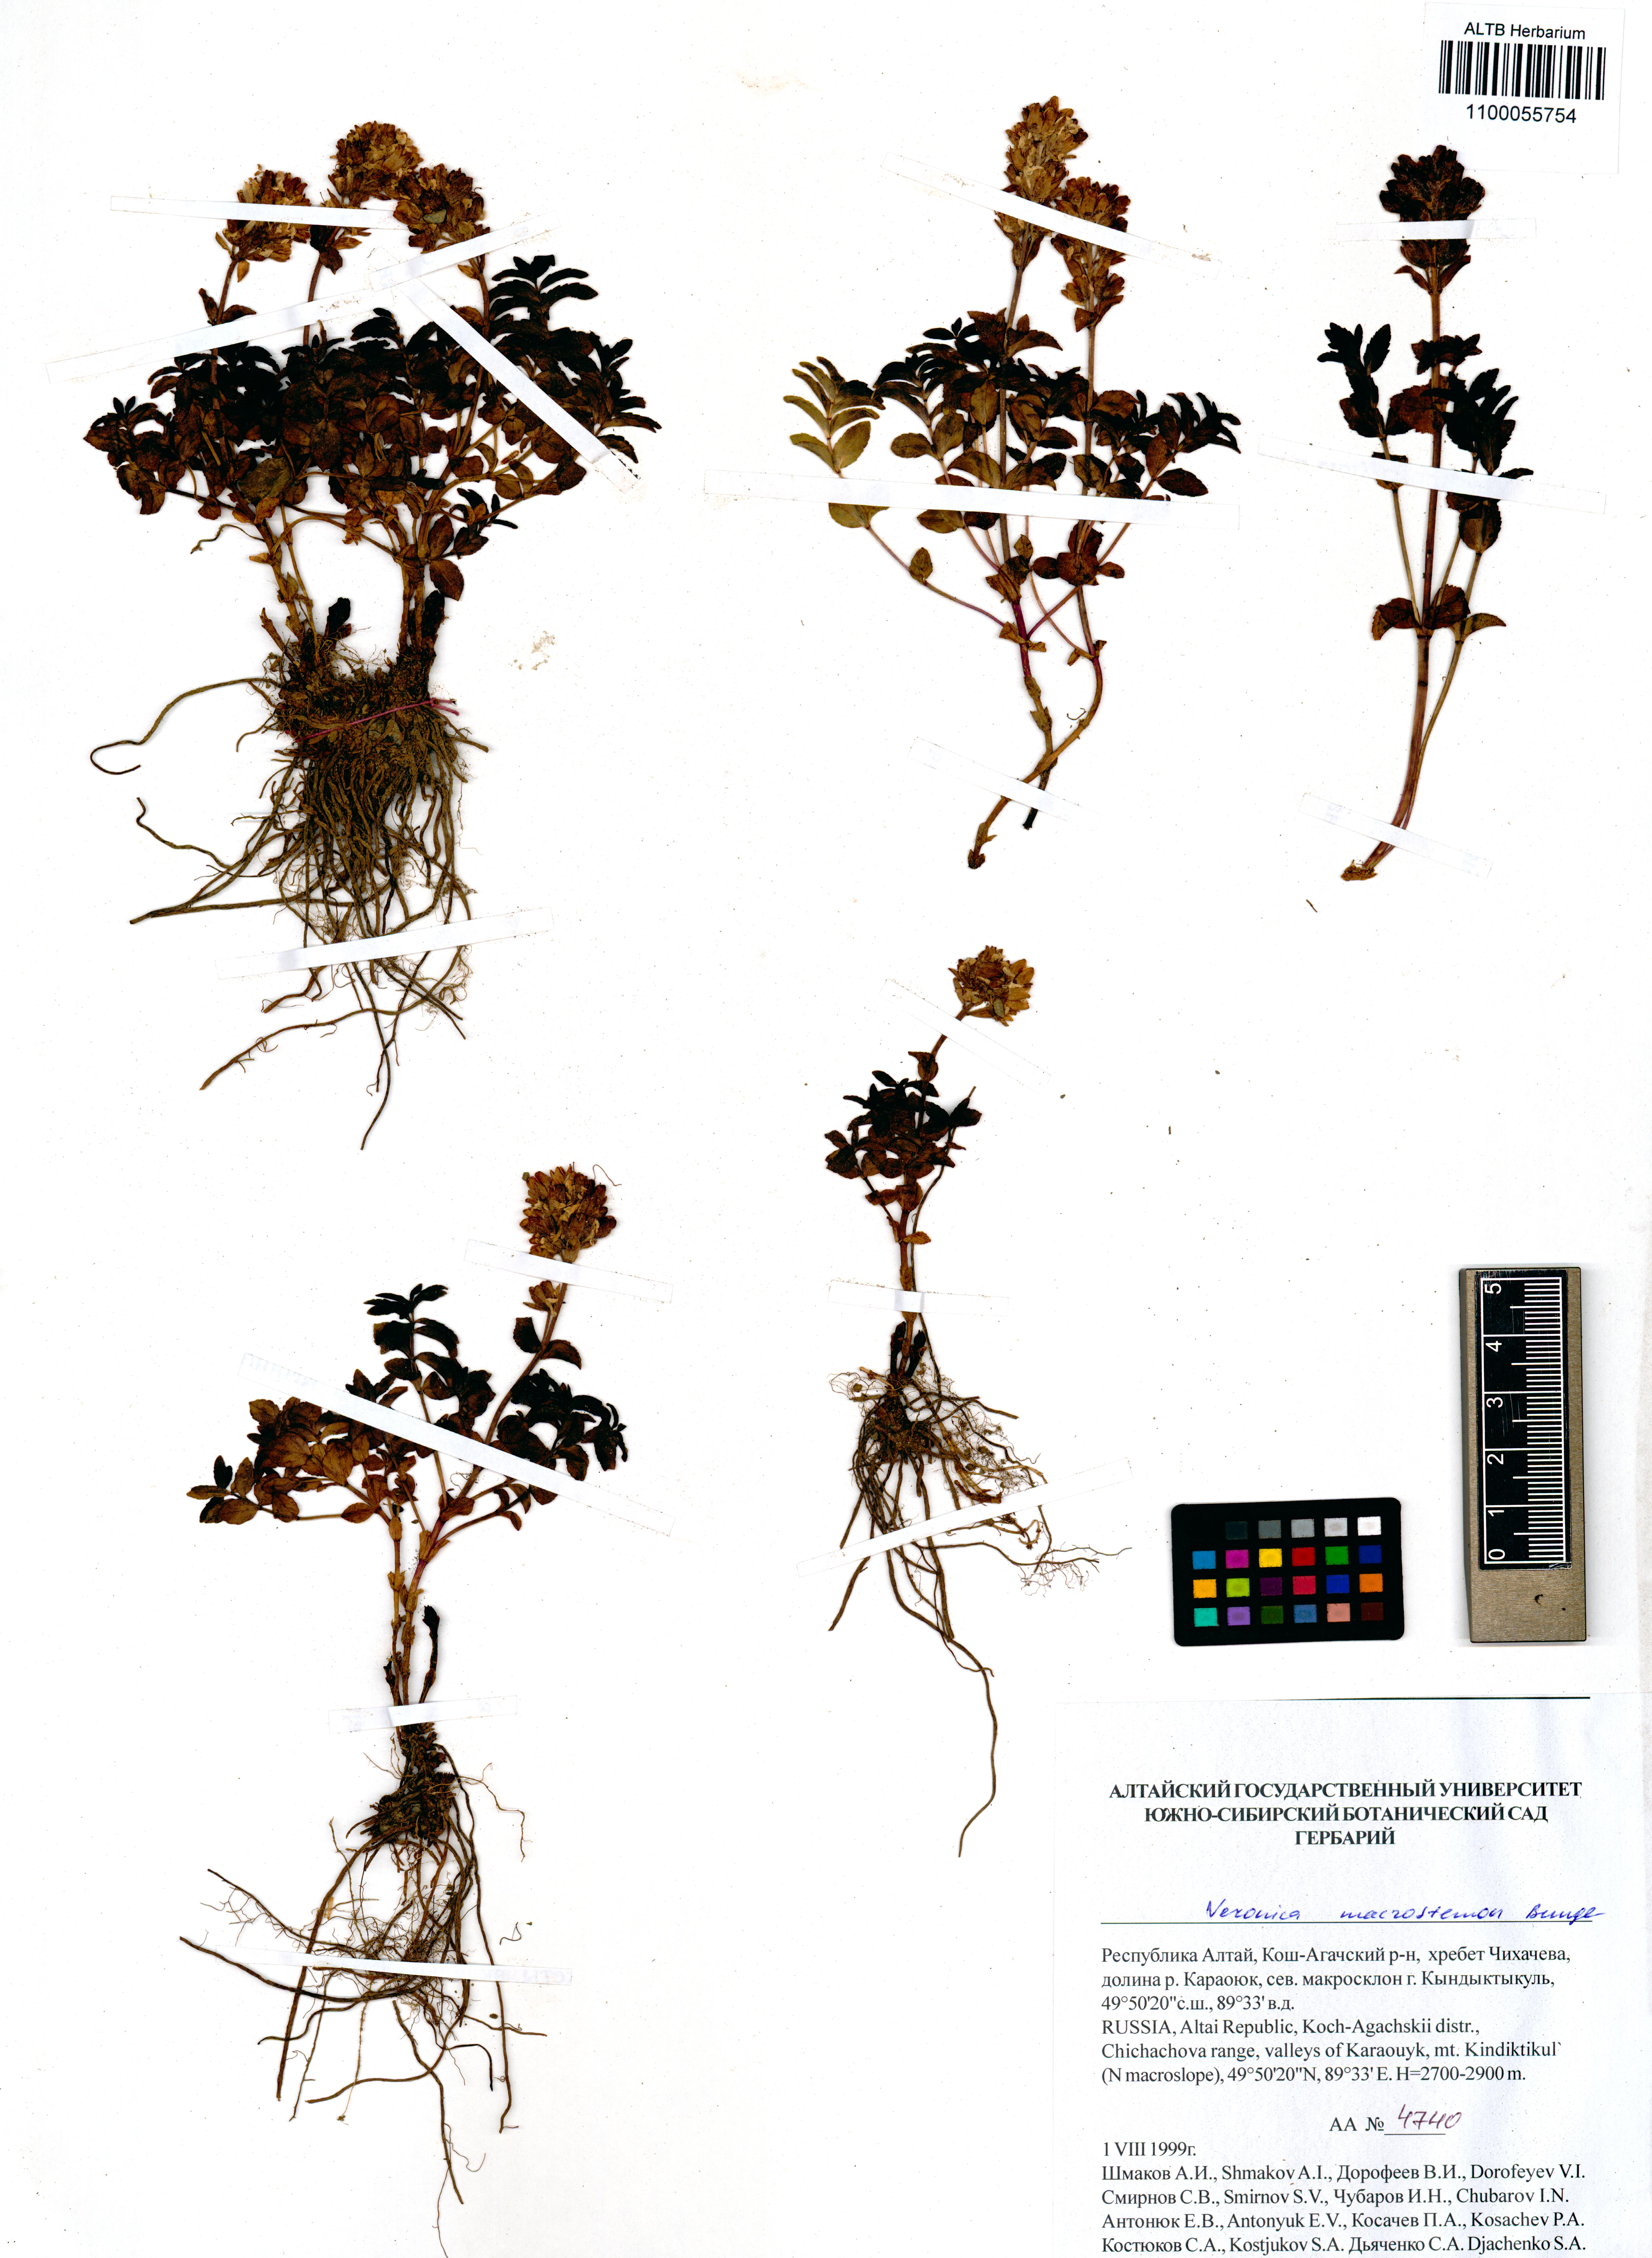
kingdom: Plantae
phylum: Tracheophyta
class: Magnoliopsida
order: Lamiales
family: Plantaginaceae
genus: Veronica
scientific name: Veronica macrostemon
